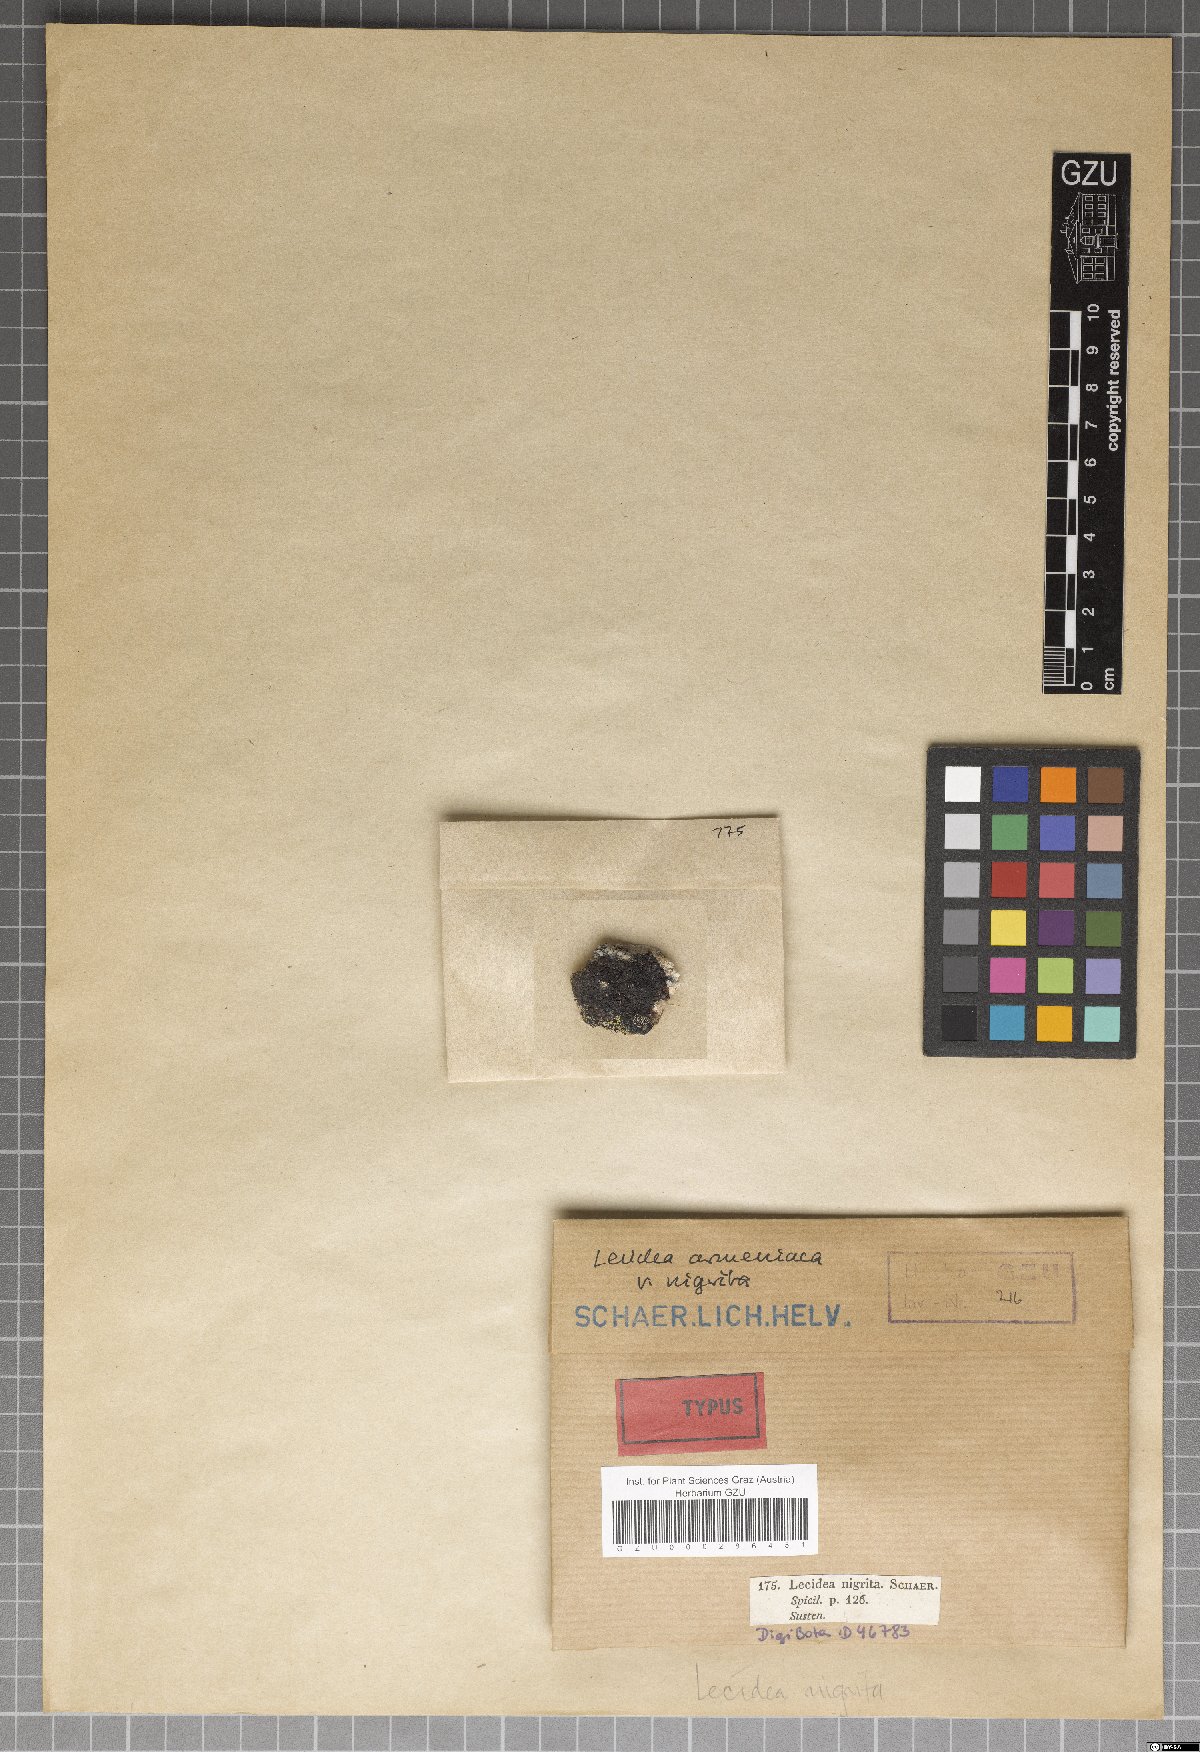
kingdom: Fungi
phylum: Ascomycota
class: Lecanoromycetes
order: Rhizocarpales
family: Rhizocarpaceae
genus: Rhizocarpon
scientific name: Rhizocarpon geographicum
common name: Yellow map lichen
